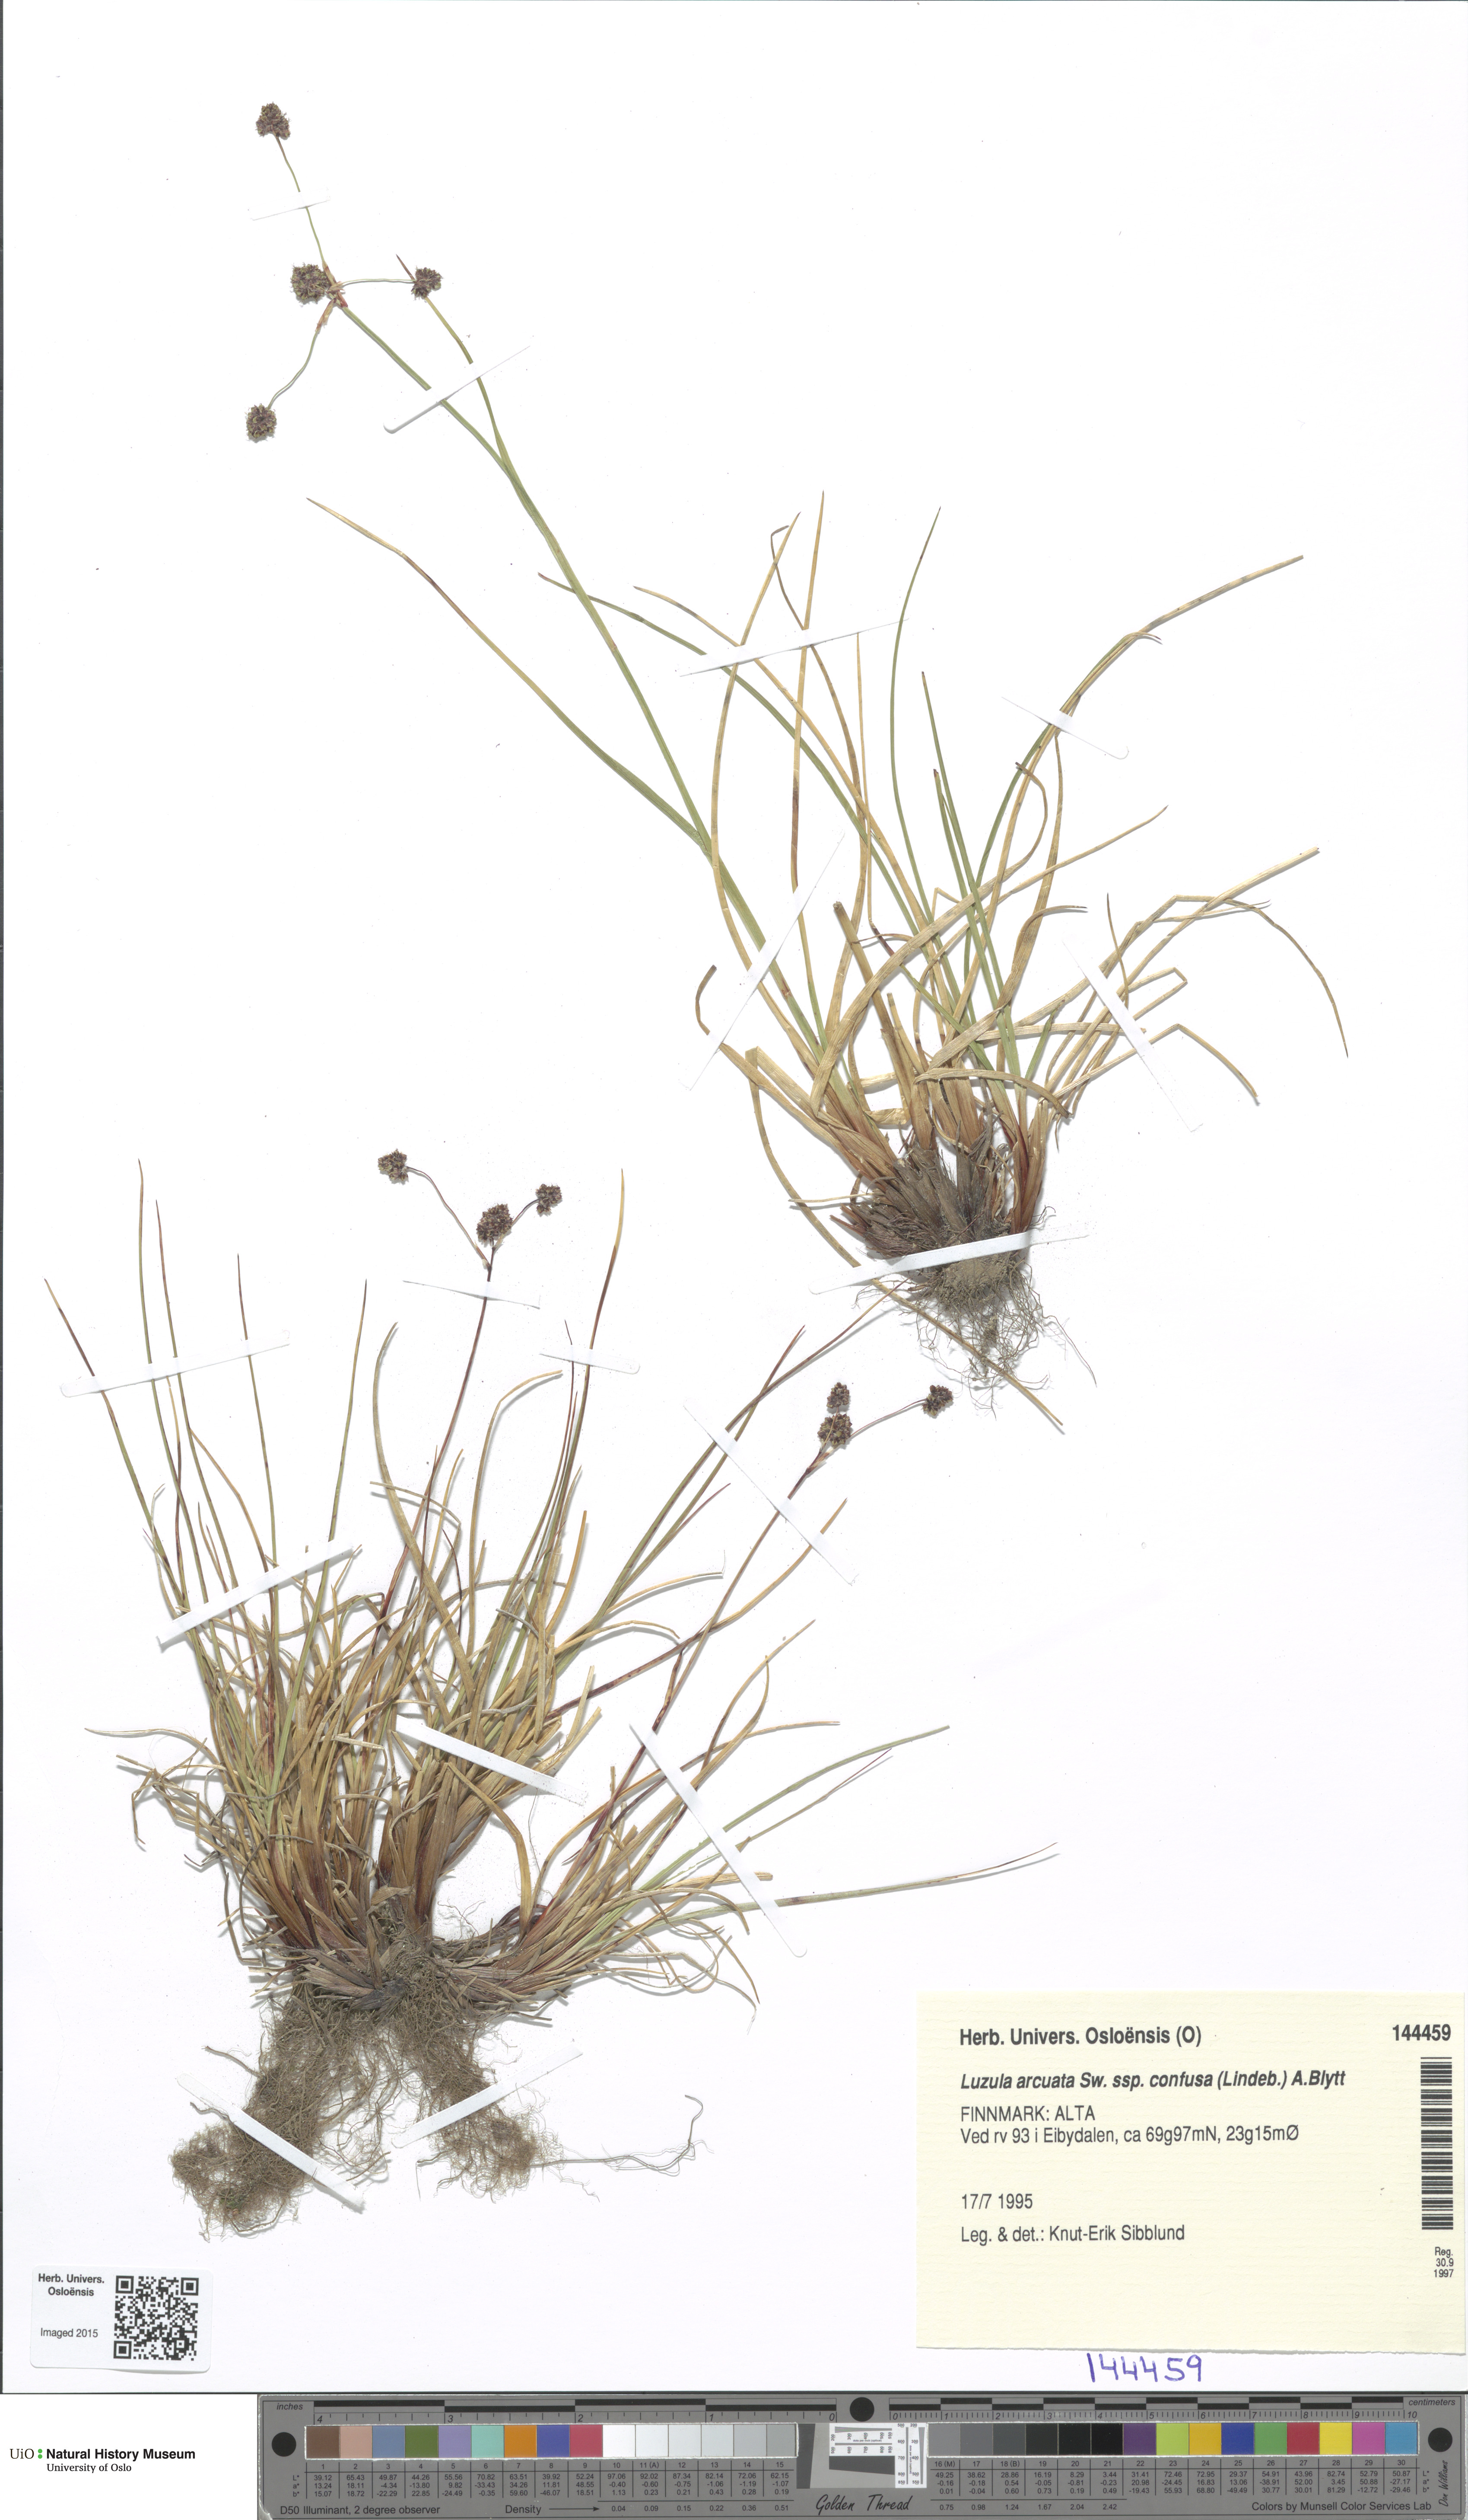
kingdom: Plantae
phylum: Tracheophyta
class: Liliopsida
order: Poales
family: Juncaceae
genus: Luzula
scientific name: Luzula confusa
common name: Northern wood rush
